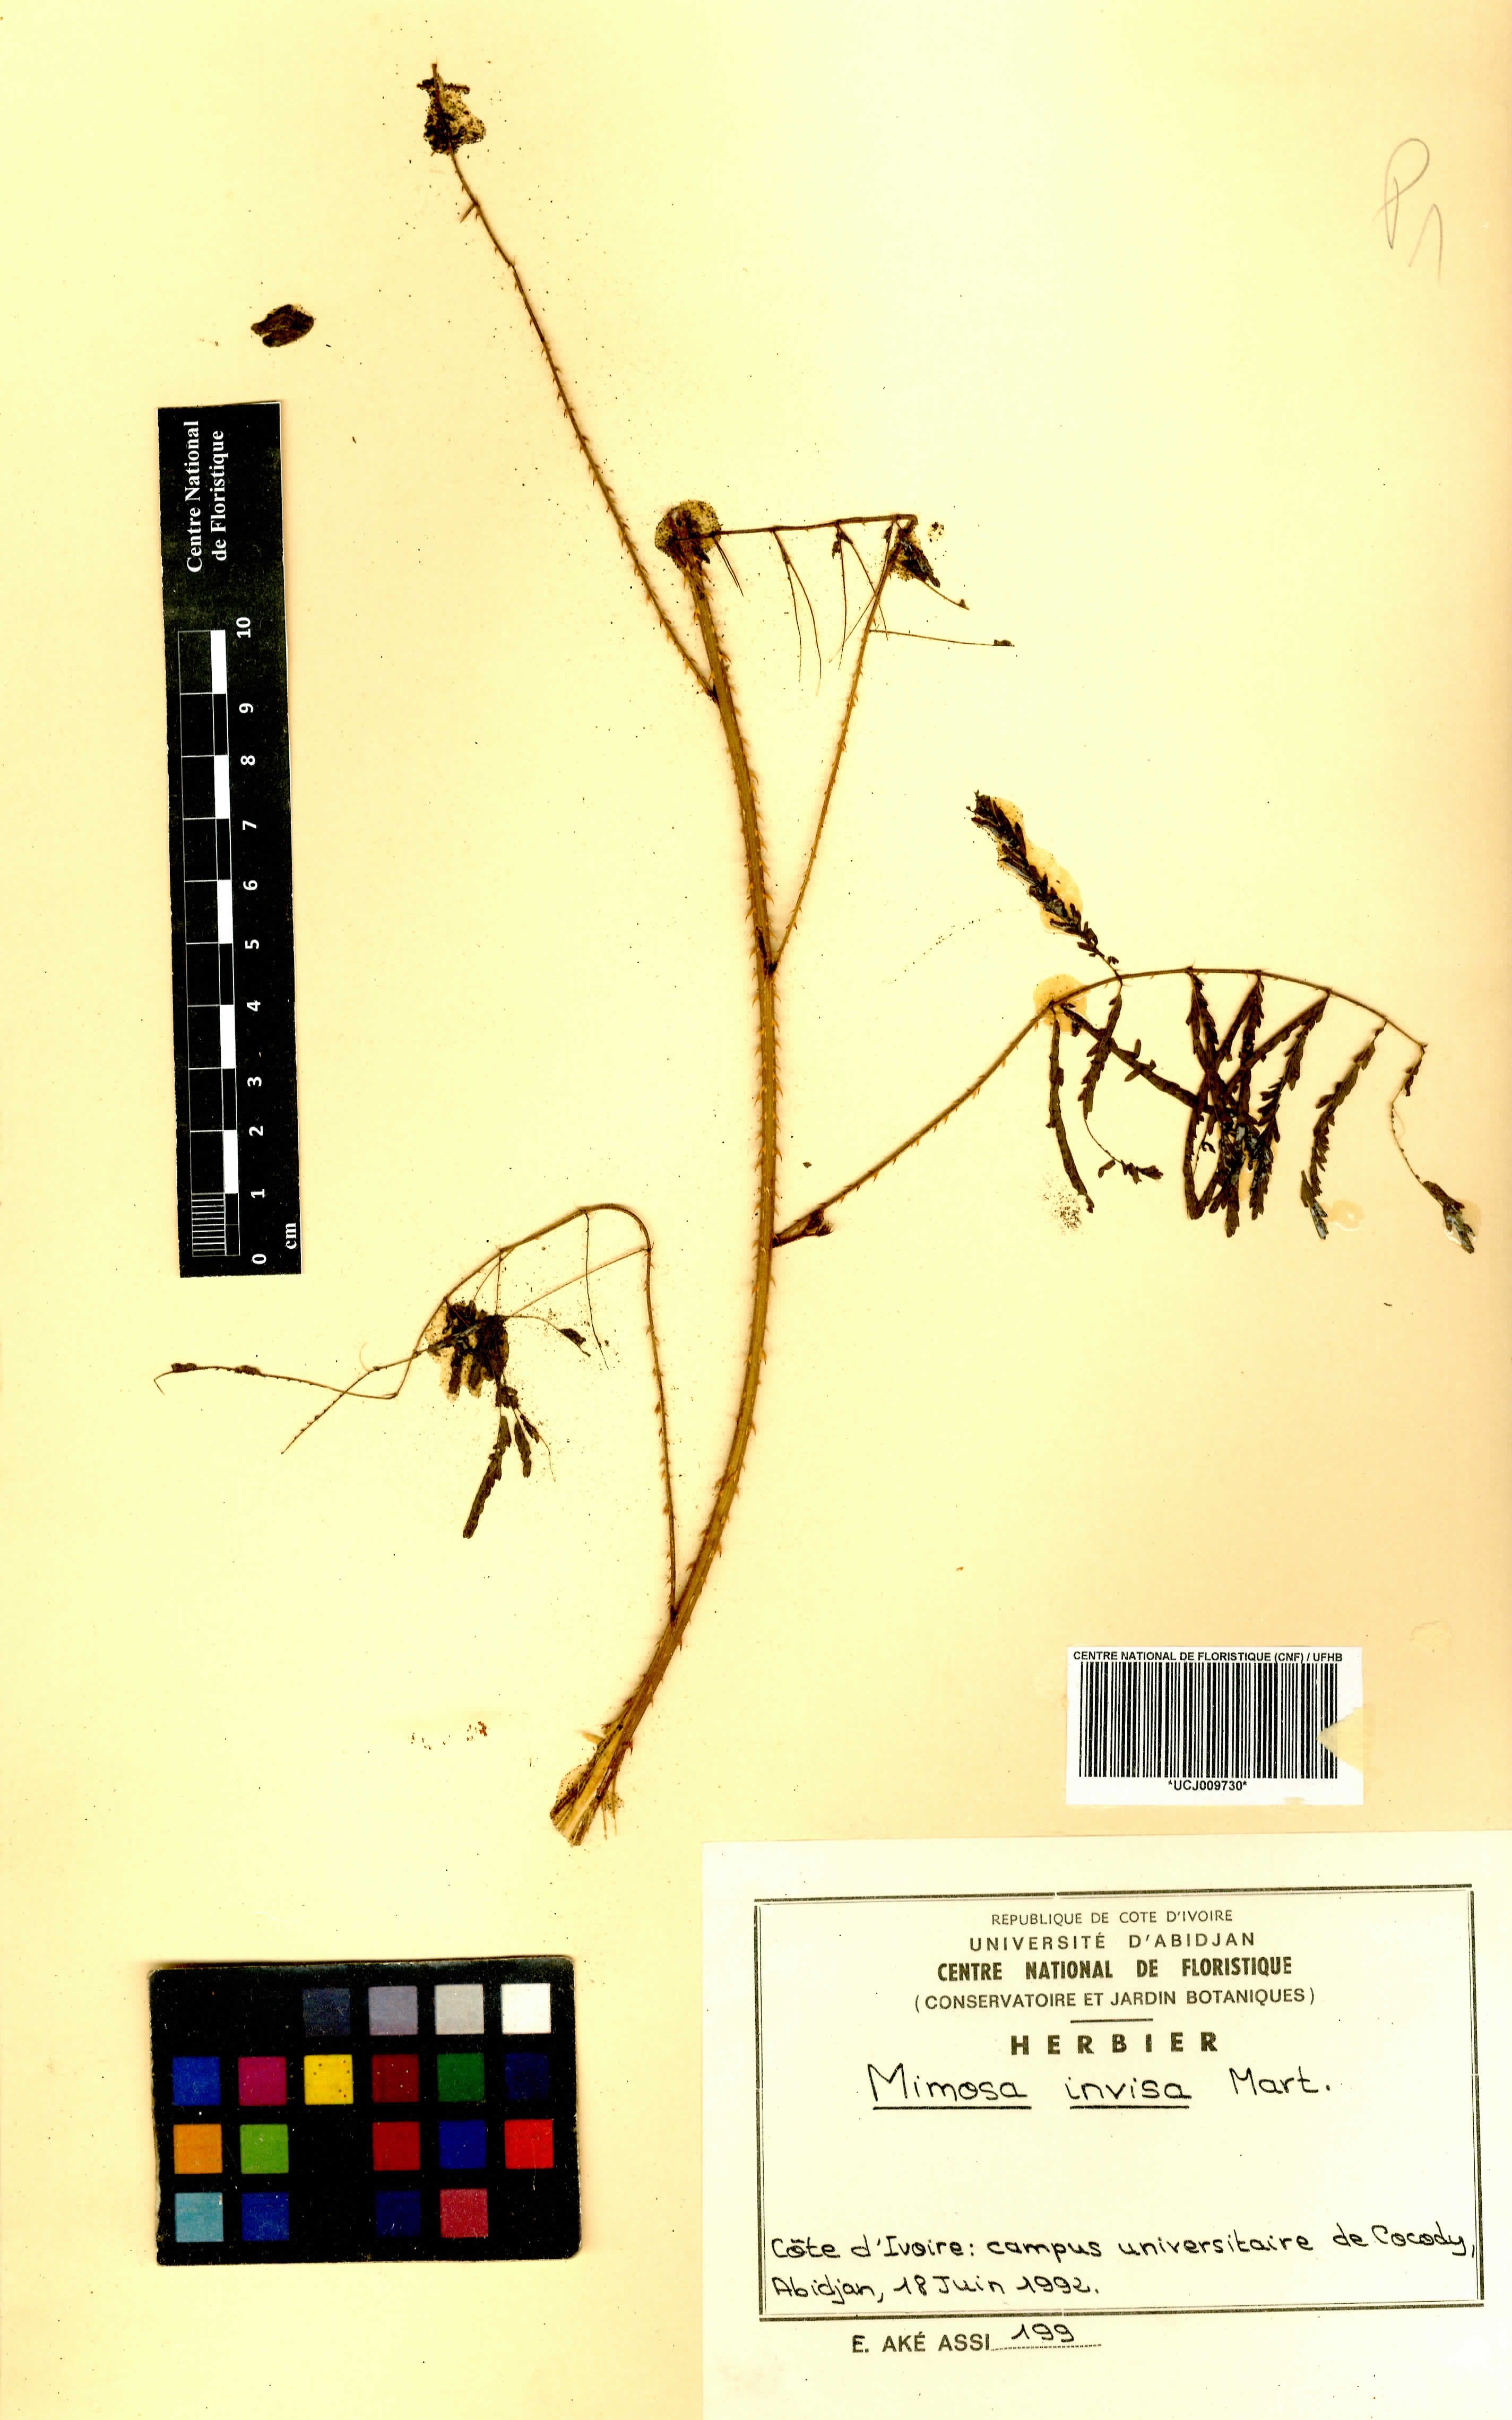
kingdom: Plantae
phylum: Tracheophyta
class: Magnoliopsida
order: Fabales
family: Fabaceae
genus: Mimosa
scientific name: Mimosa diplotricha
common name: Giant sensitive-plant
